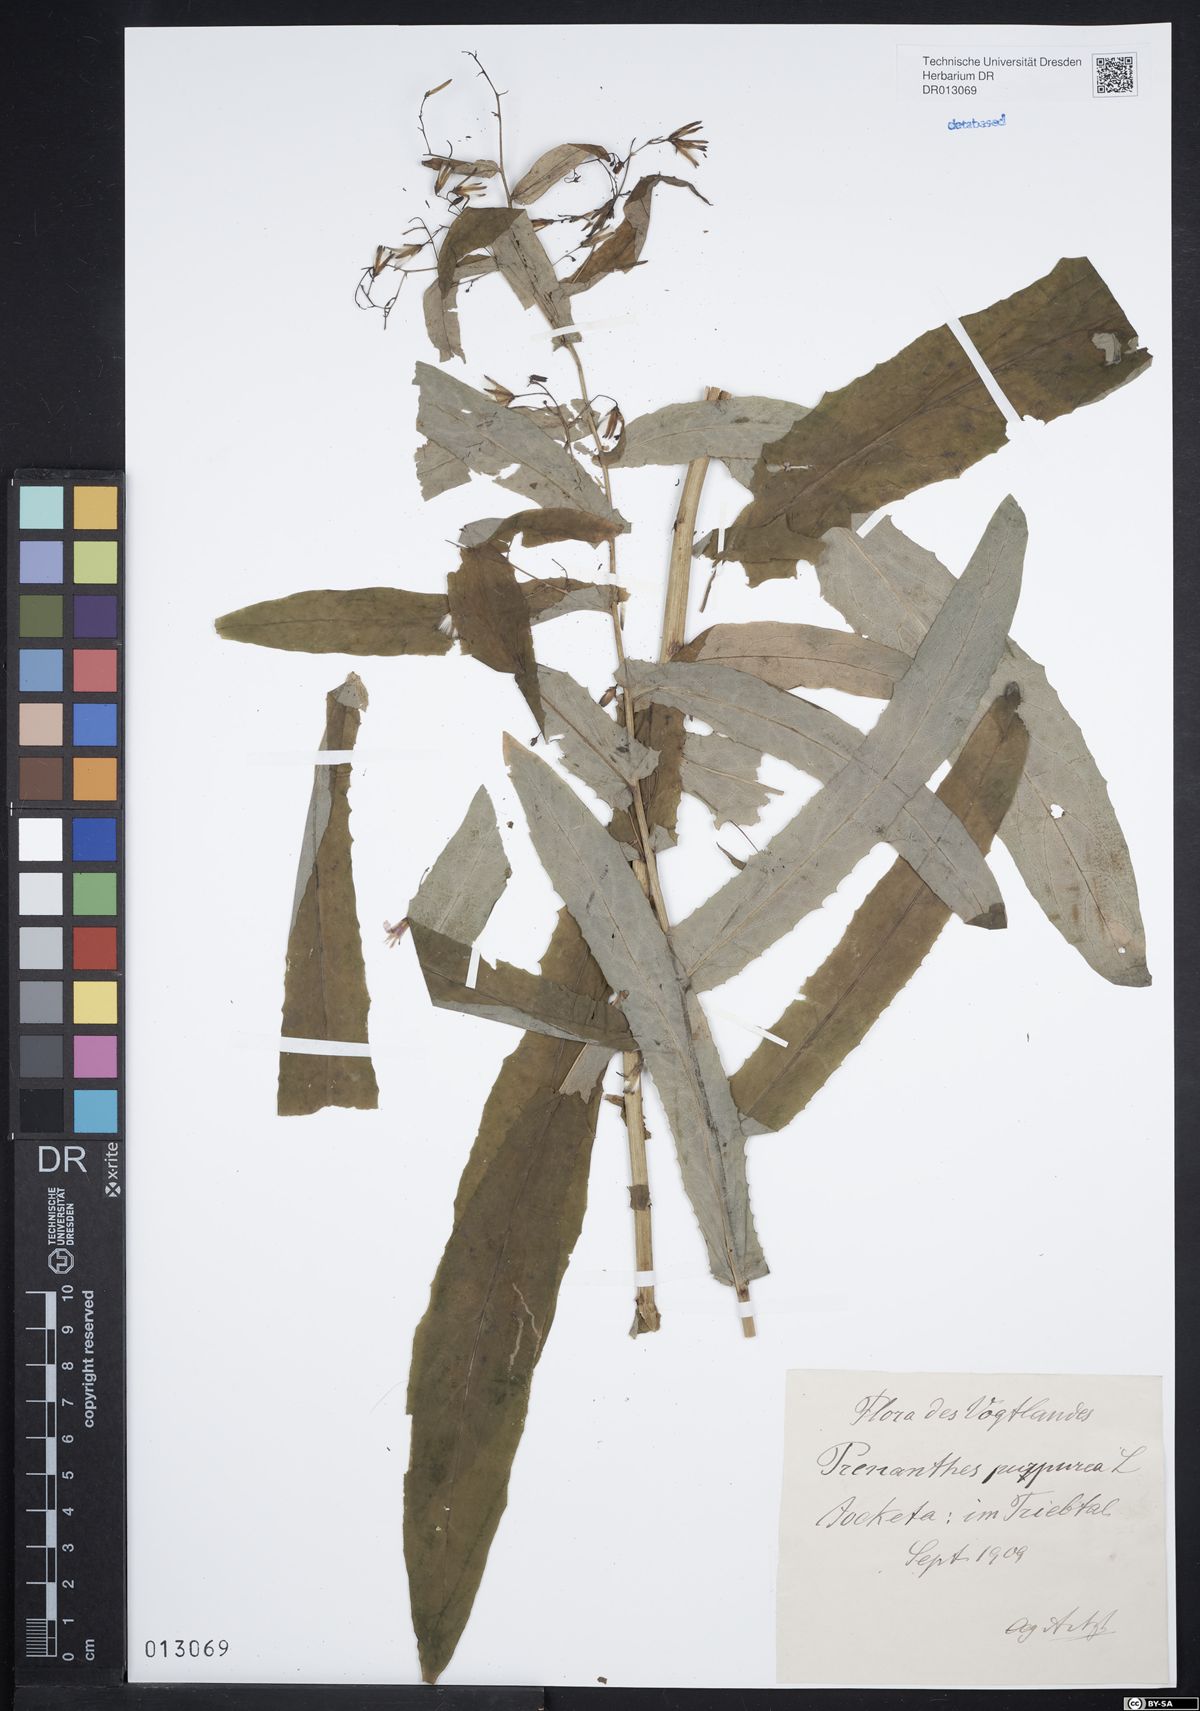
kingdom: Plantae
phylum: Tracheophyta
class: Magnoliopsida
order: Asterales
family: Asteraceae
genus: Prenanthes
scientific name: Prenanthes purpurea
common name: Purple lettuce
